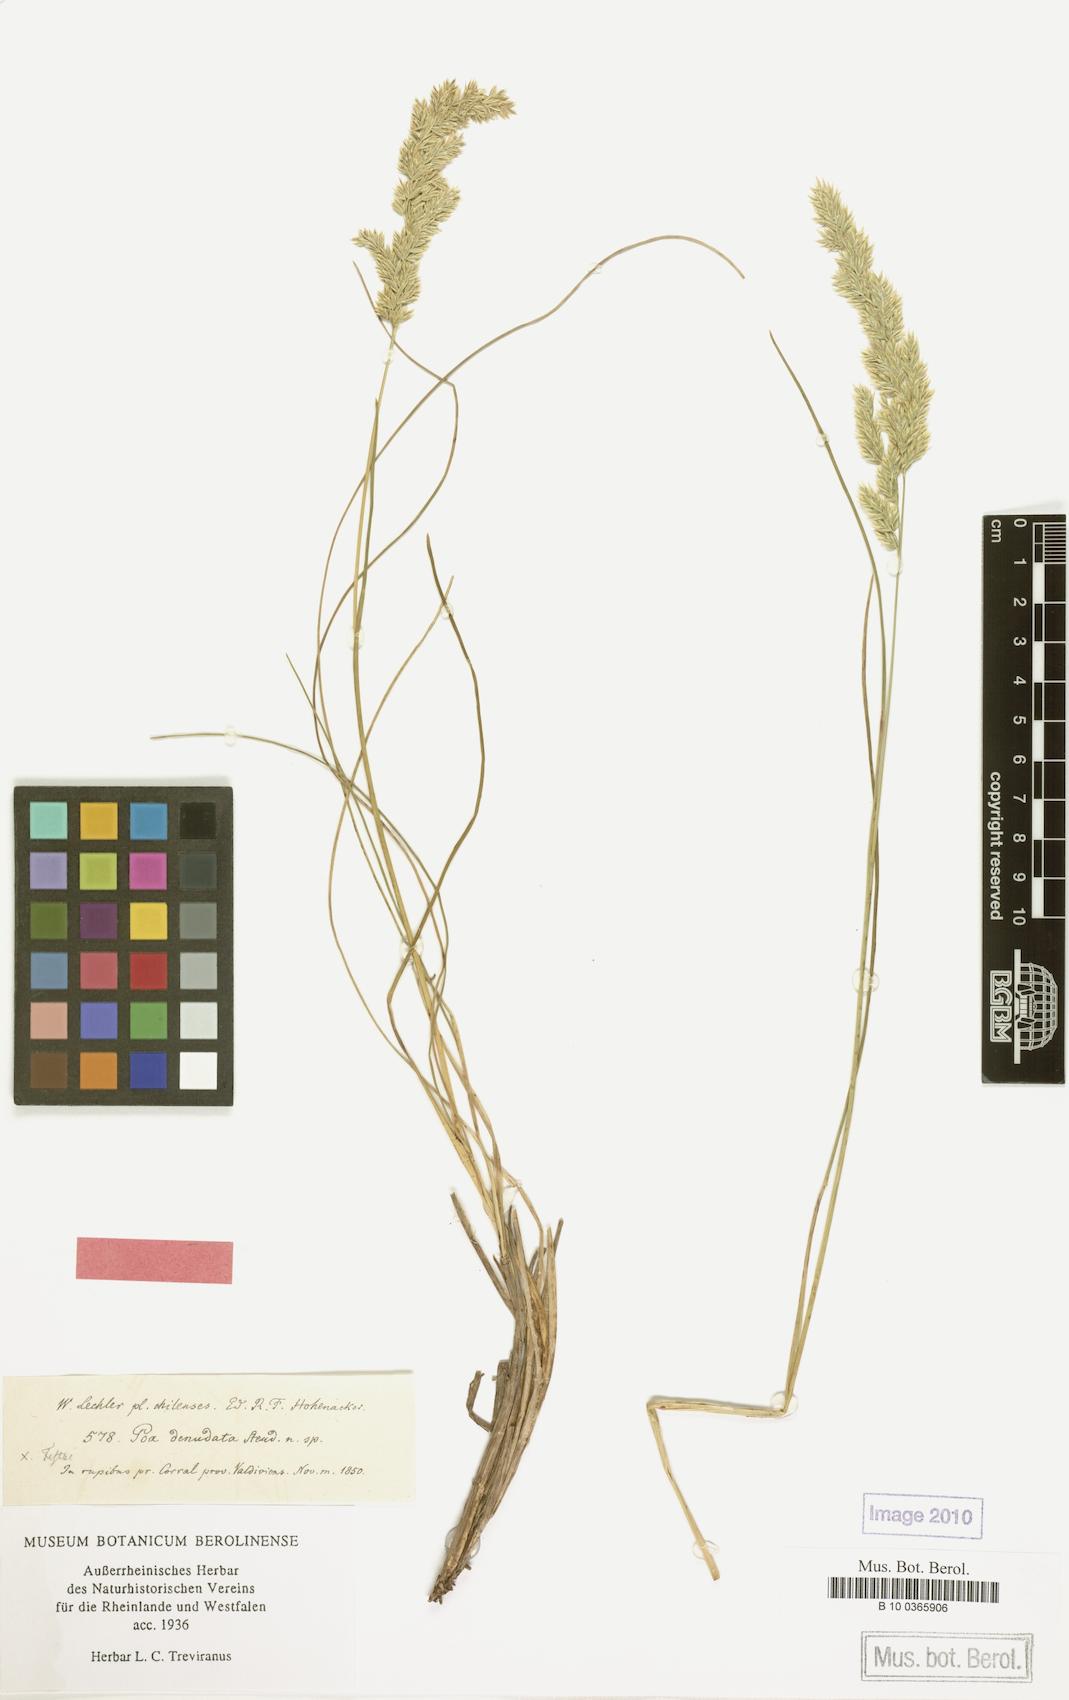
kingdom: Plantae
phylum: Tracheophyta
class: Liliopsida
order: Poales
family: Poaceae
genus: Poa
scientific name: Poa denudata
